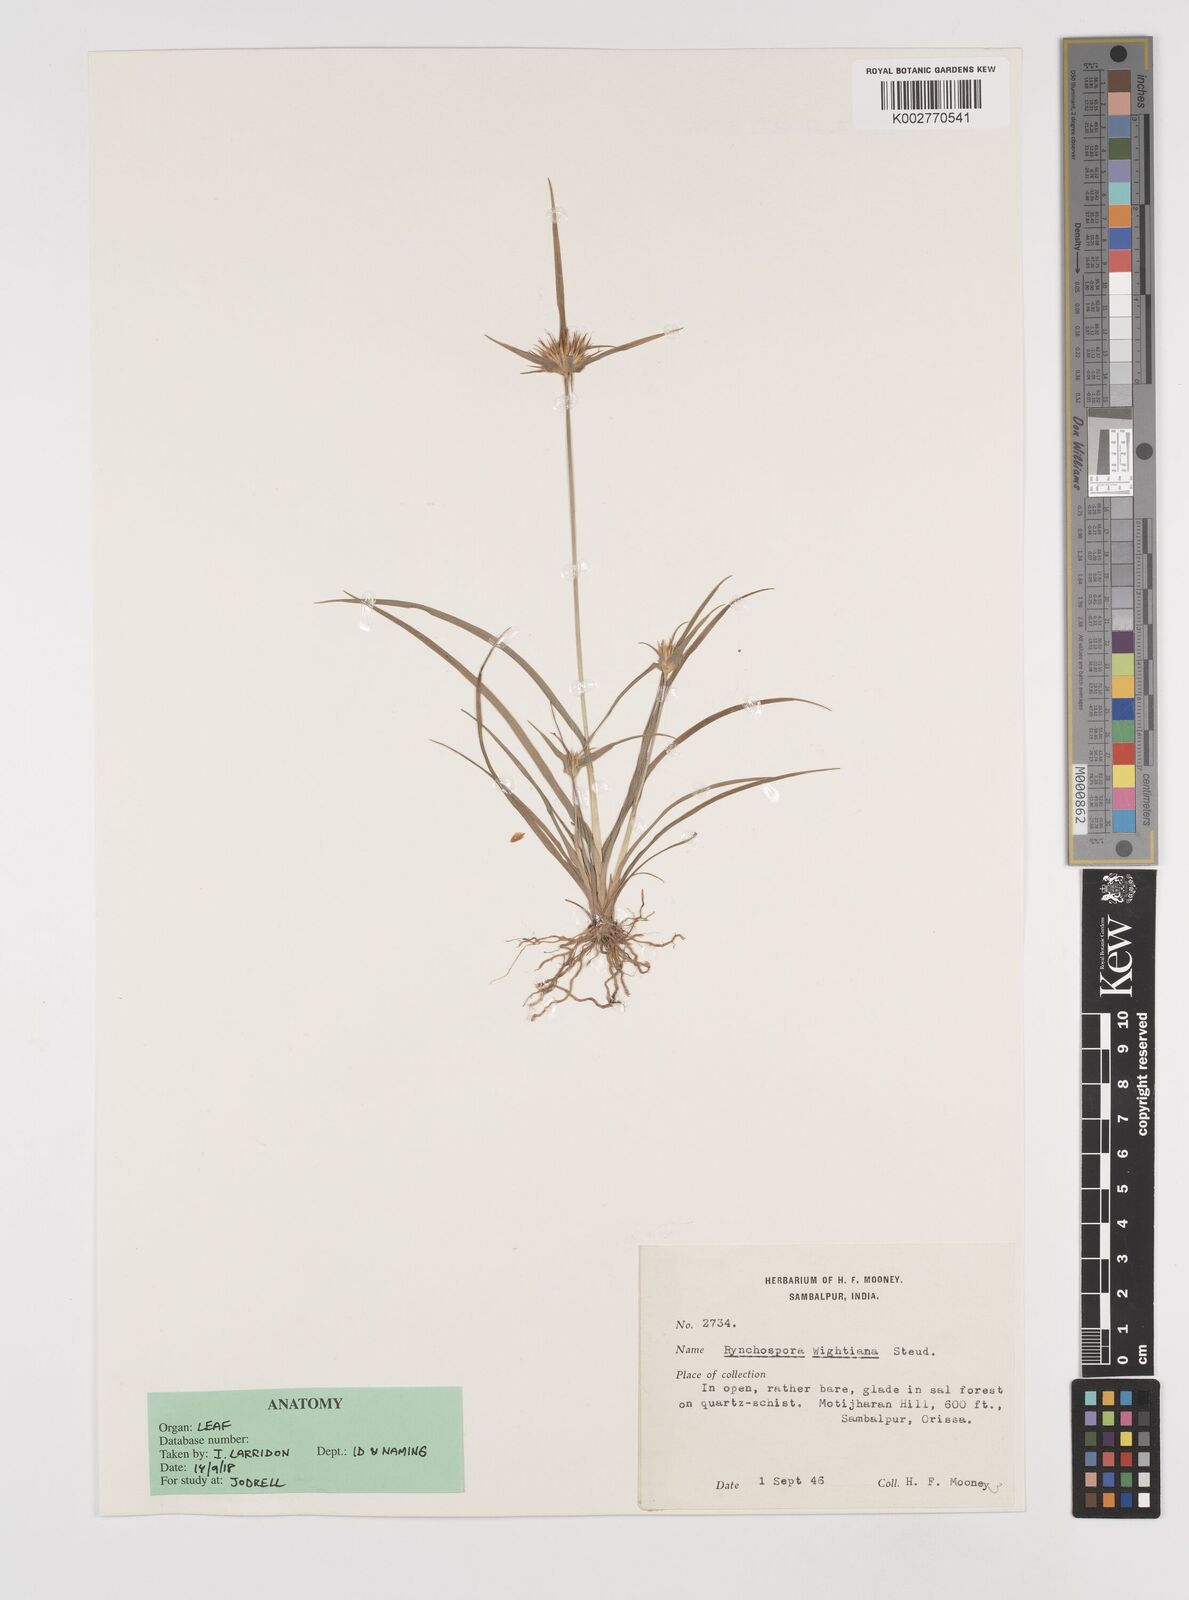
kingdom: Plantae
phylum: Tracheophyta
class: Liliopsida
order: Poales
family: Cyperaceae
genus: Rhynchospora
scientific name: Rhynchospora wightiana
